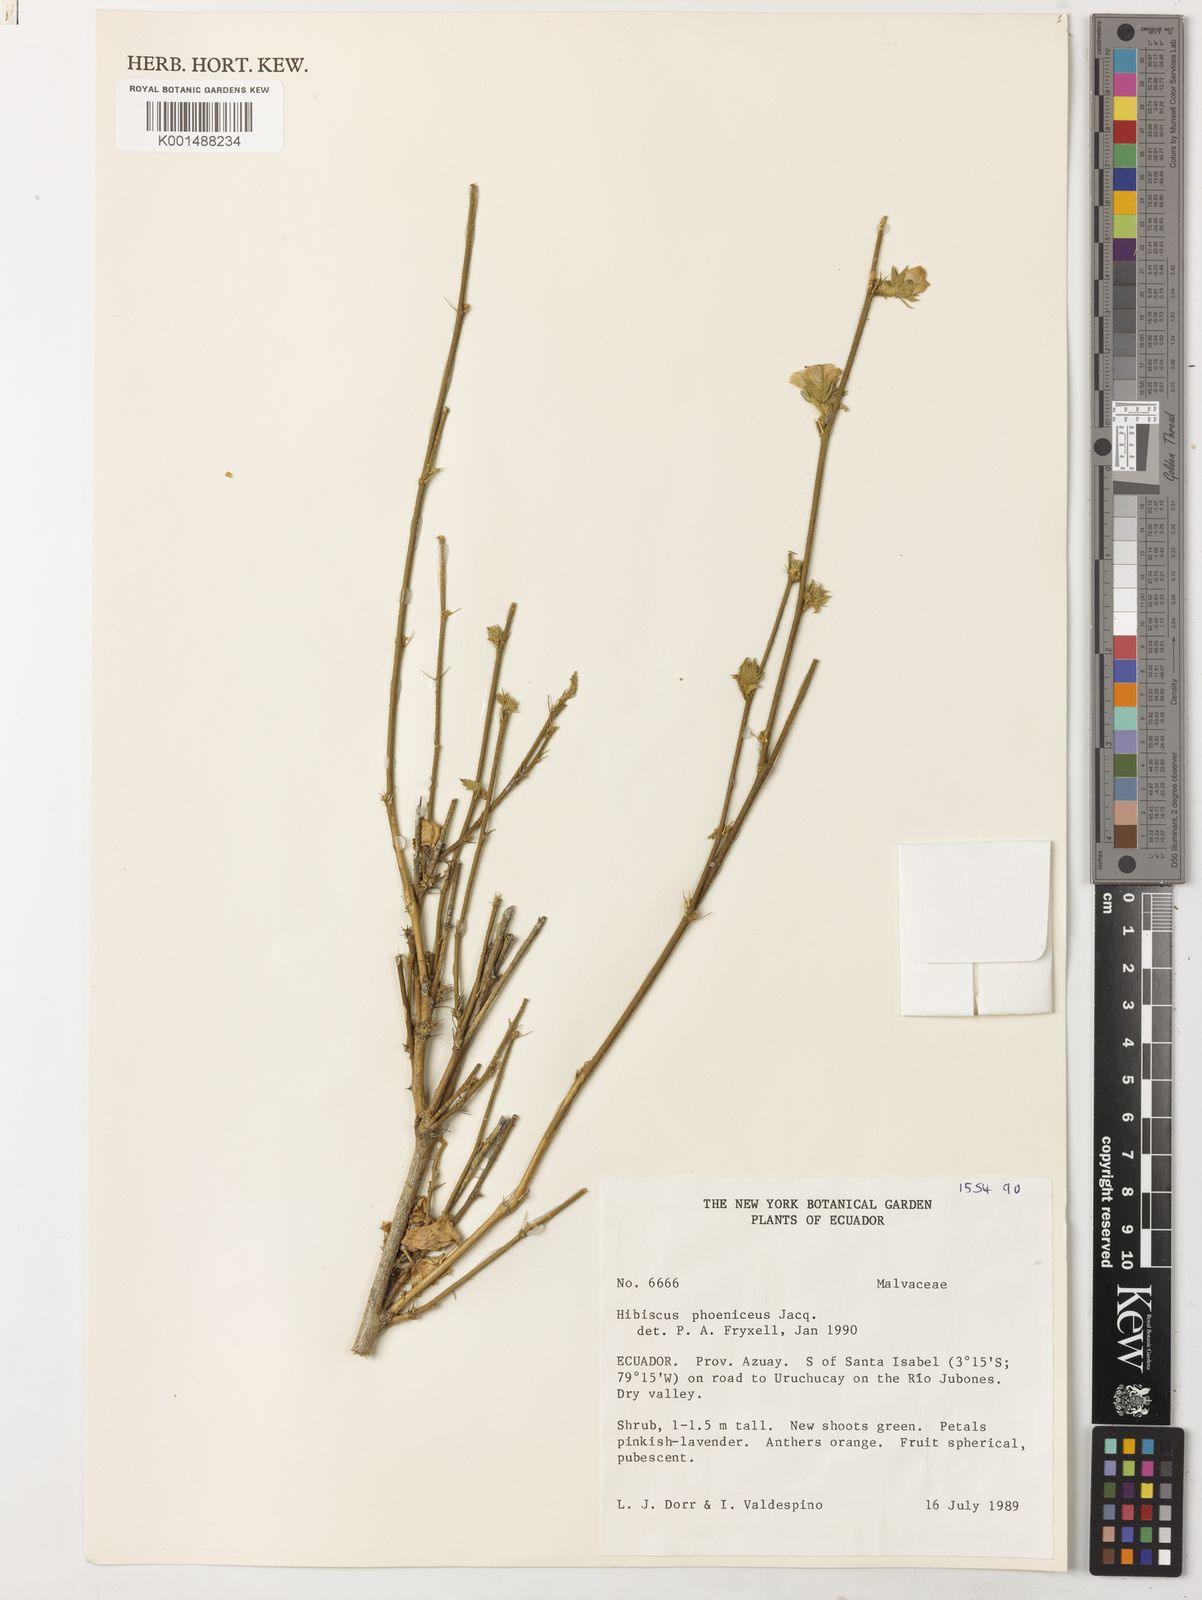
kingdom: Plantae
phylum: Tracheophyta
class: Magnoliopsida
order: Malvales
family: Malvaceae
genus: Hibiscus
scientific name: Hibiscus phoeniceus
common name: Brazilian rosemallow
